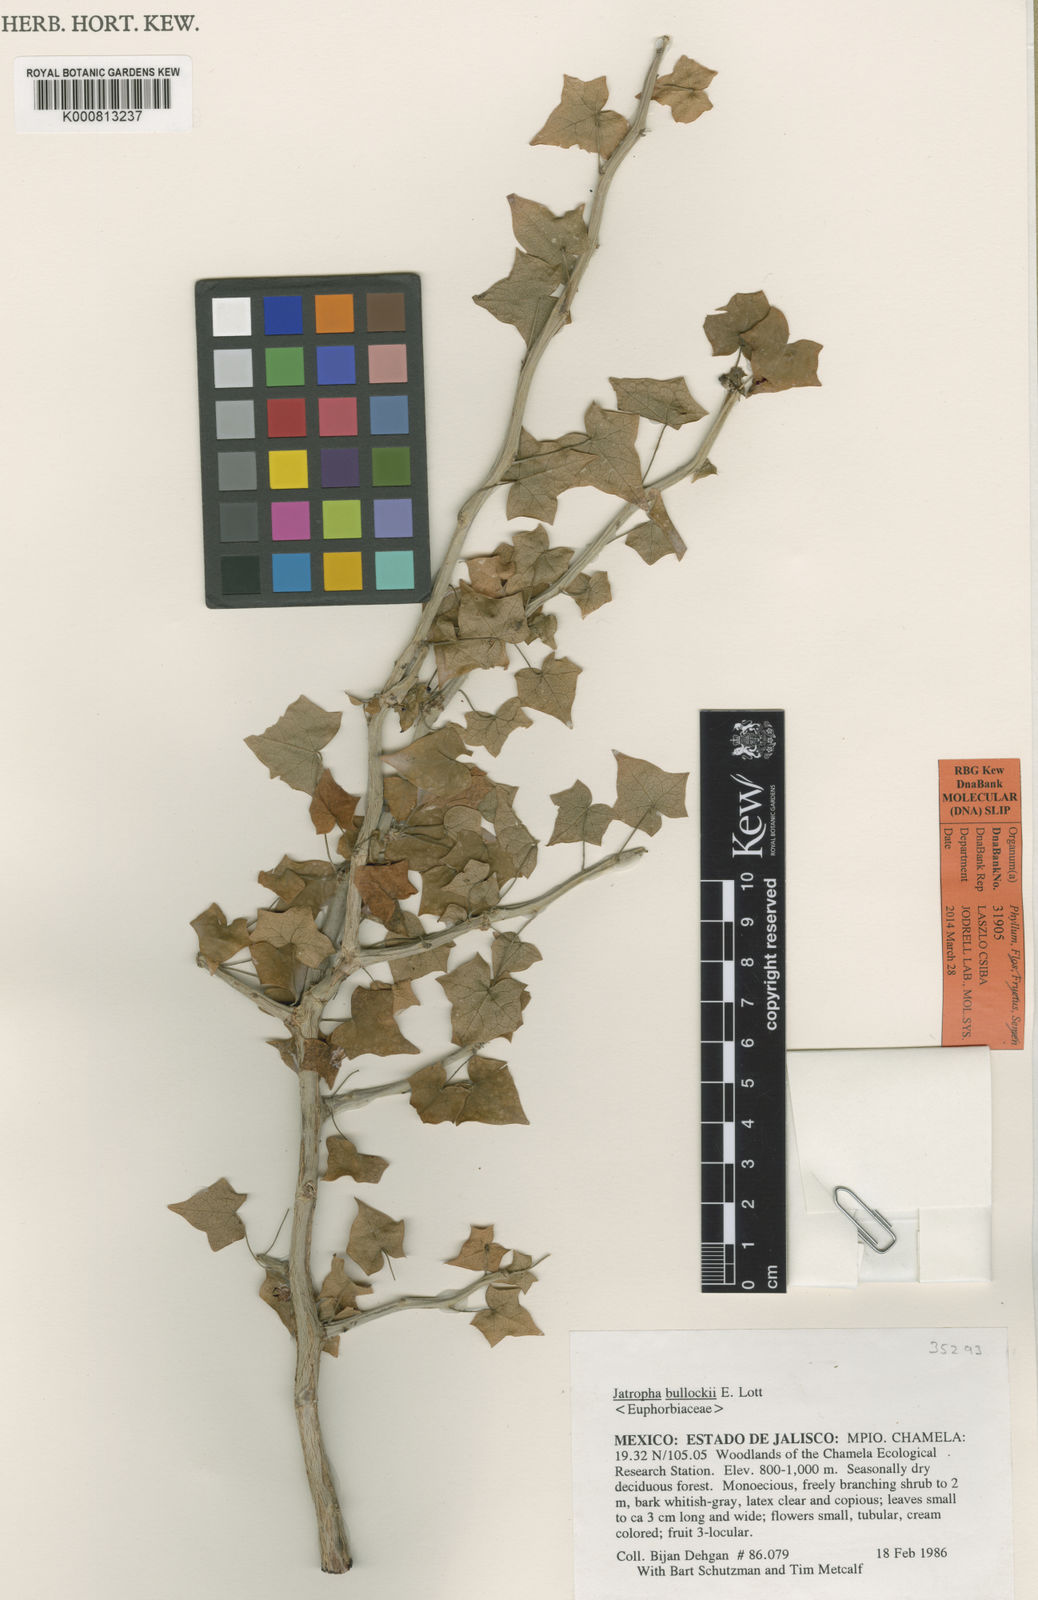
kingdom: Plantae
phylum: Tracheophyta
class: Magnoliopsida
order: Malpighiales
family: Euphorbiaceae
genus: Jatropha
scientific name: Jatropha bullockii
